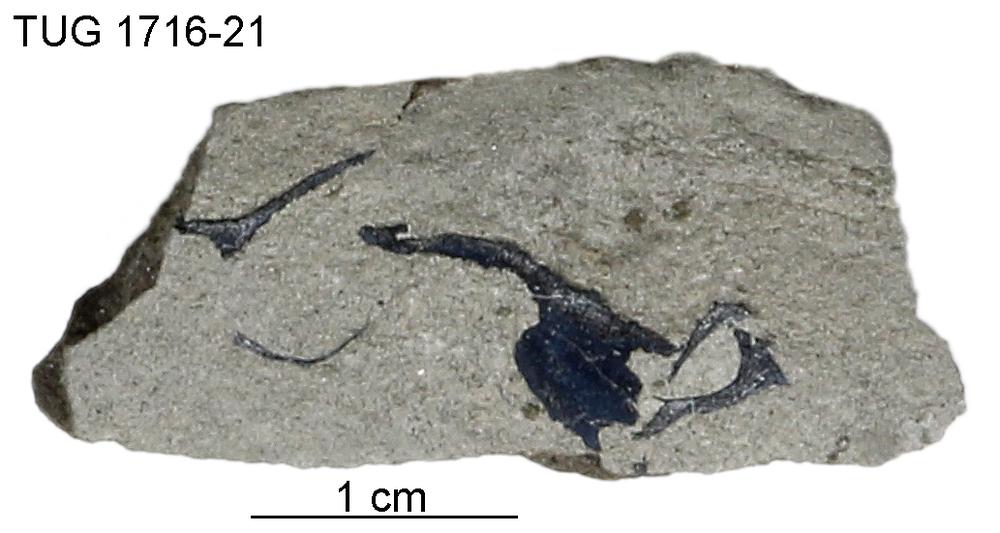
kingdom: Animalia
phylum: Chordata
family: Coccosteidae
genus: Millerosteus
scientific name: Millerosteus minor
